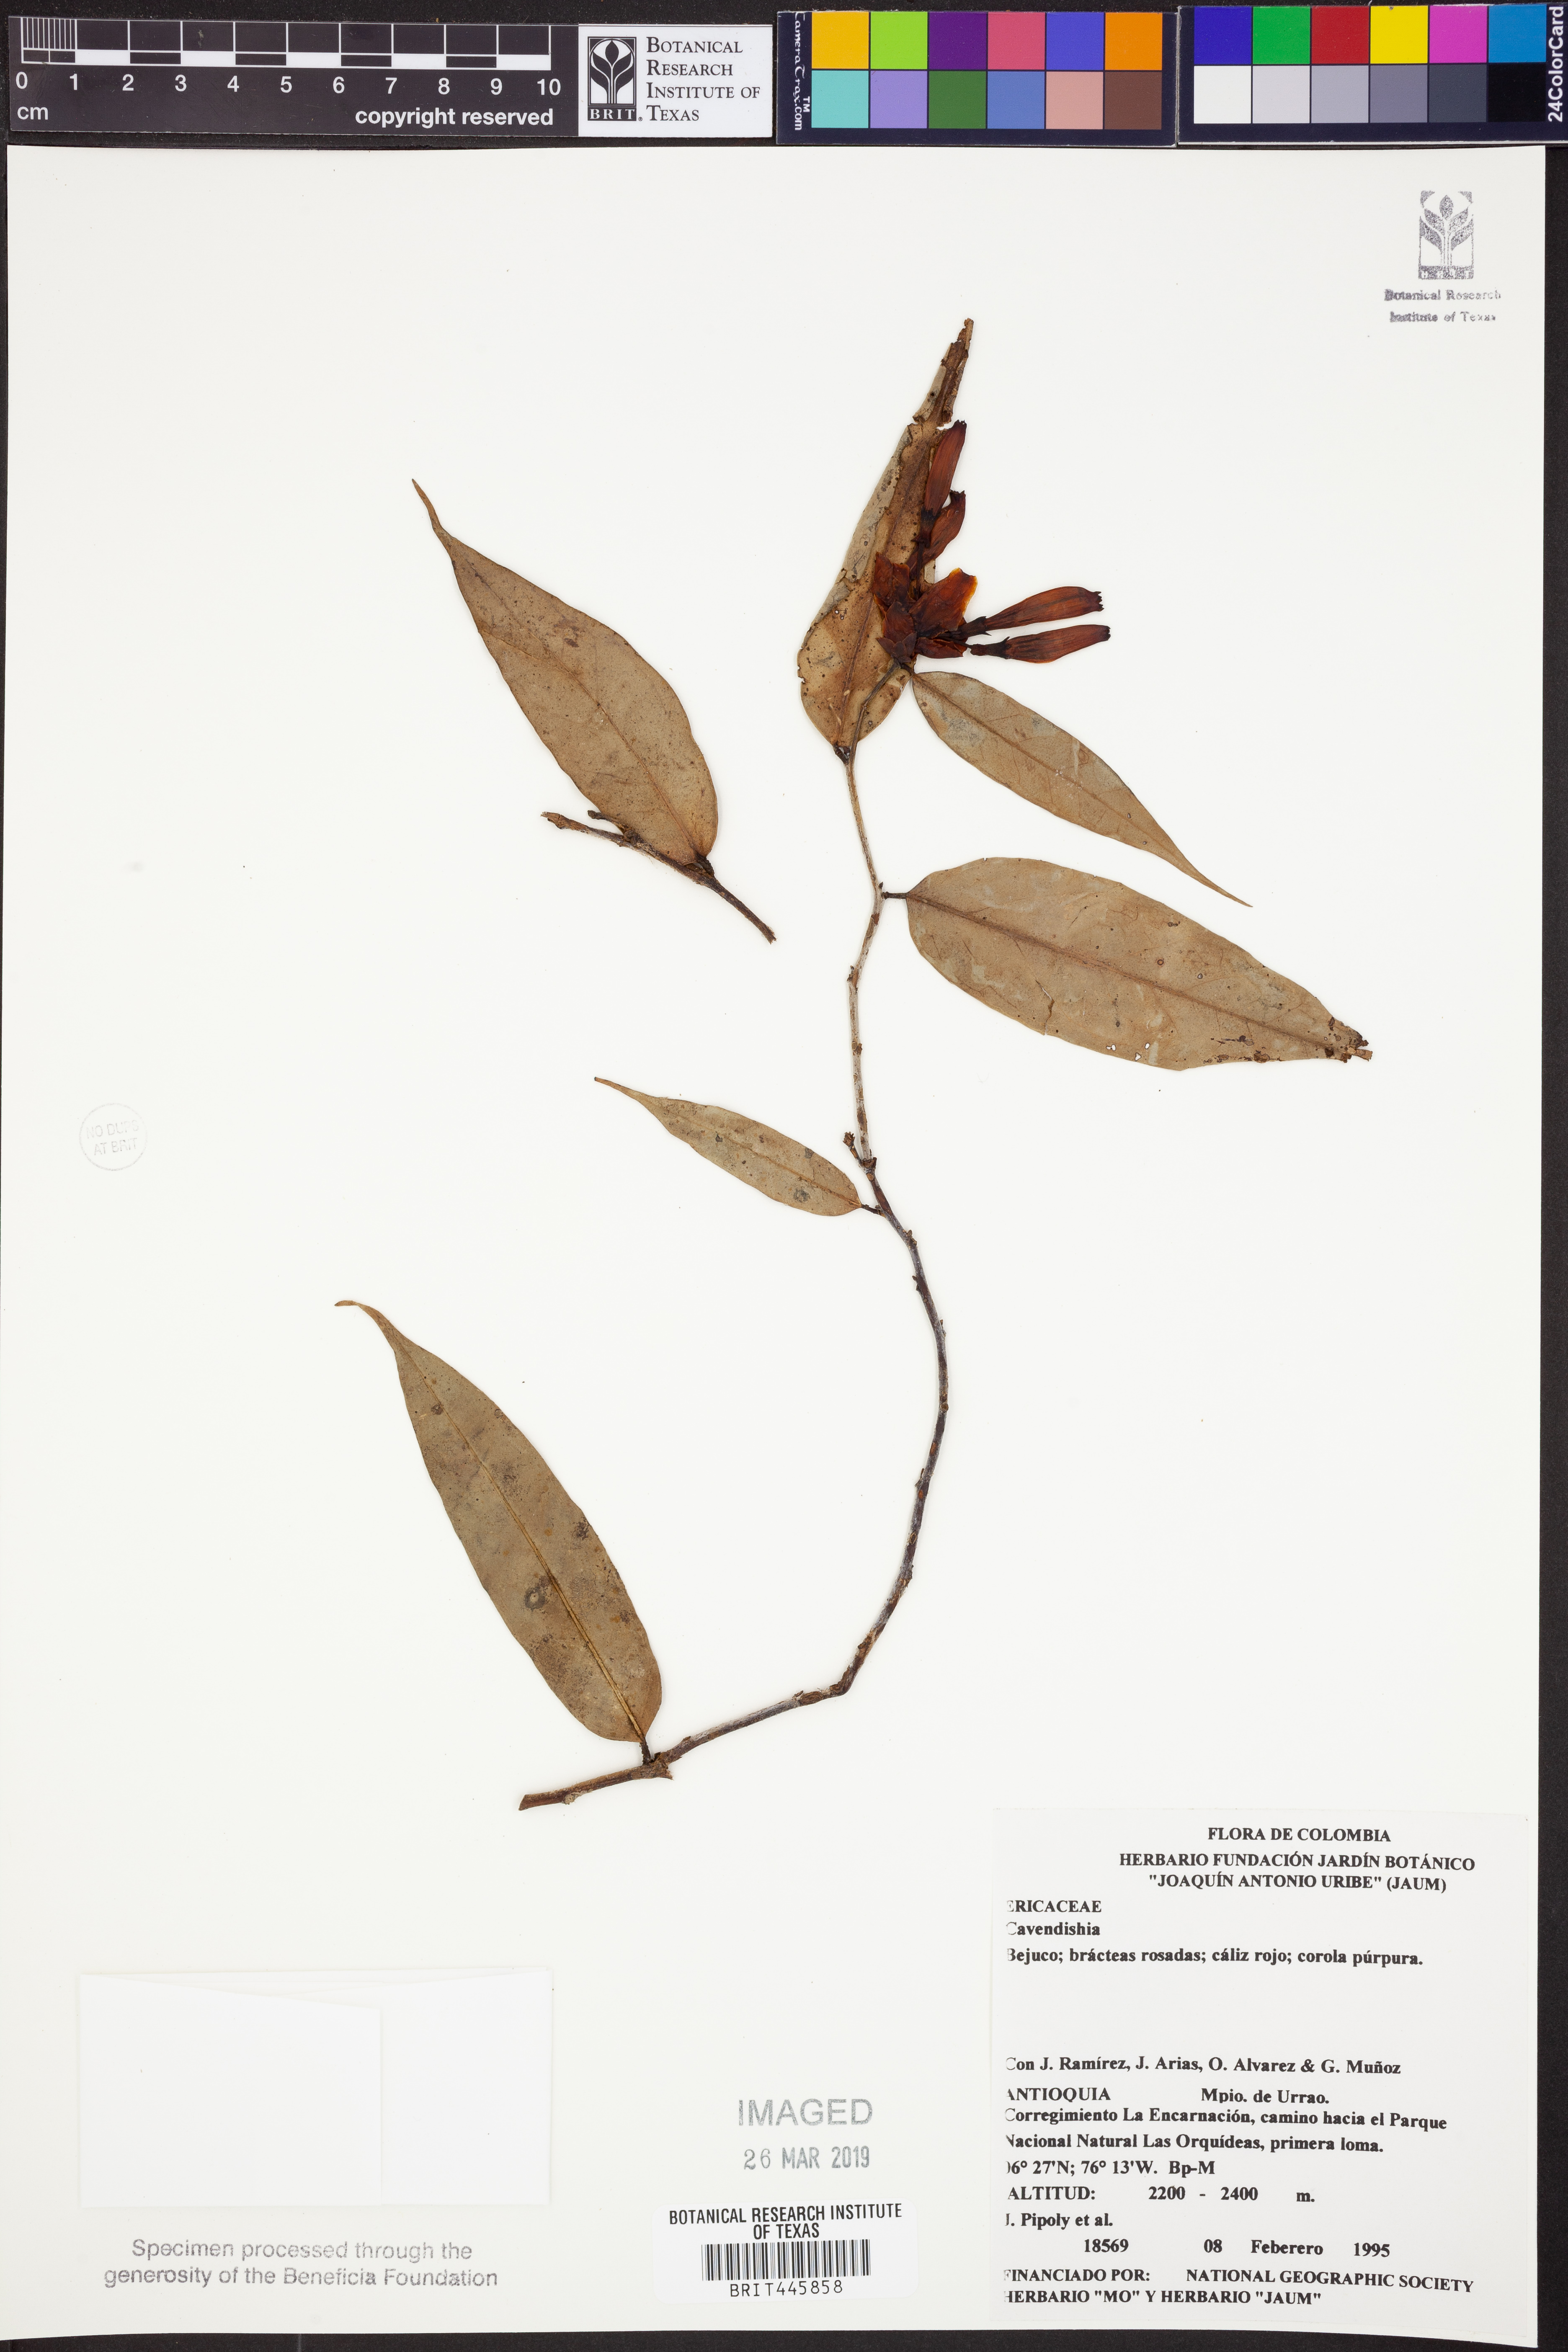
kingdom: Plantae
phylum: Tracheophyta
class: Magnoliopsida
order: Ericales
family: Ericaceae
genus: Cavendishia
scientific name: Cavendishia
